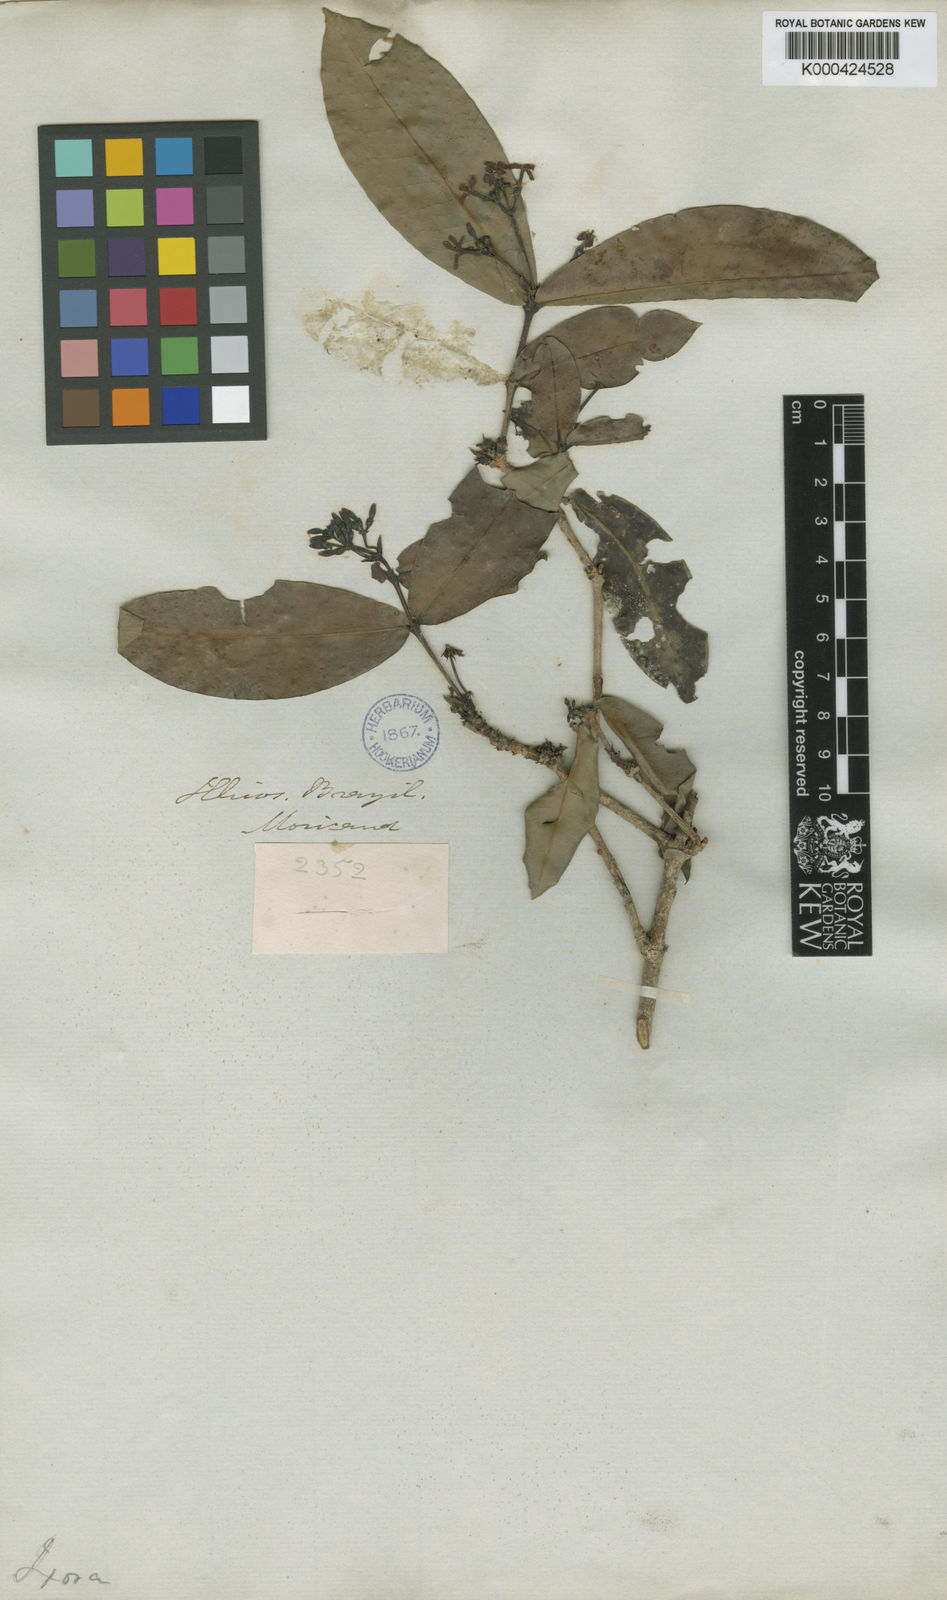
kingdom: Plantae
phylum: Tracheophyta
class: Magnoliopsida
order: Gentianales
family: Rubiaceae
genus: Ixora
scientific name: Ixora bahiensis
